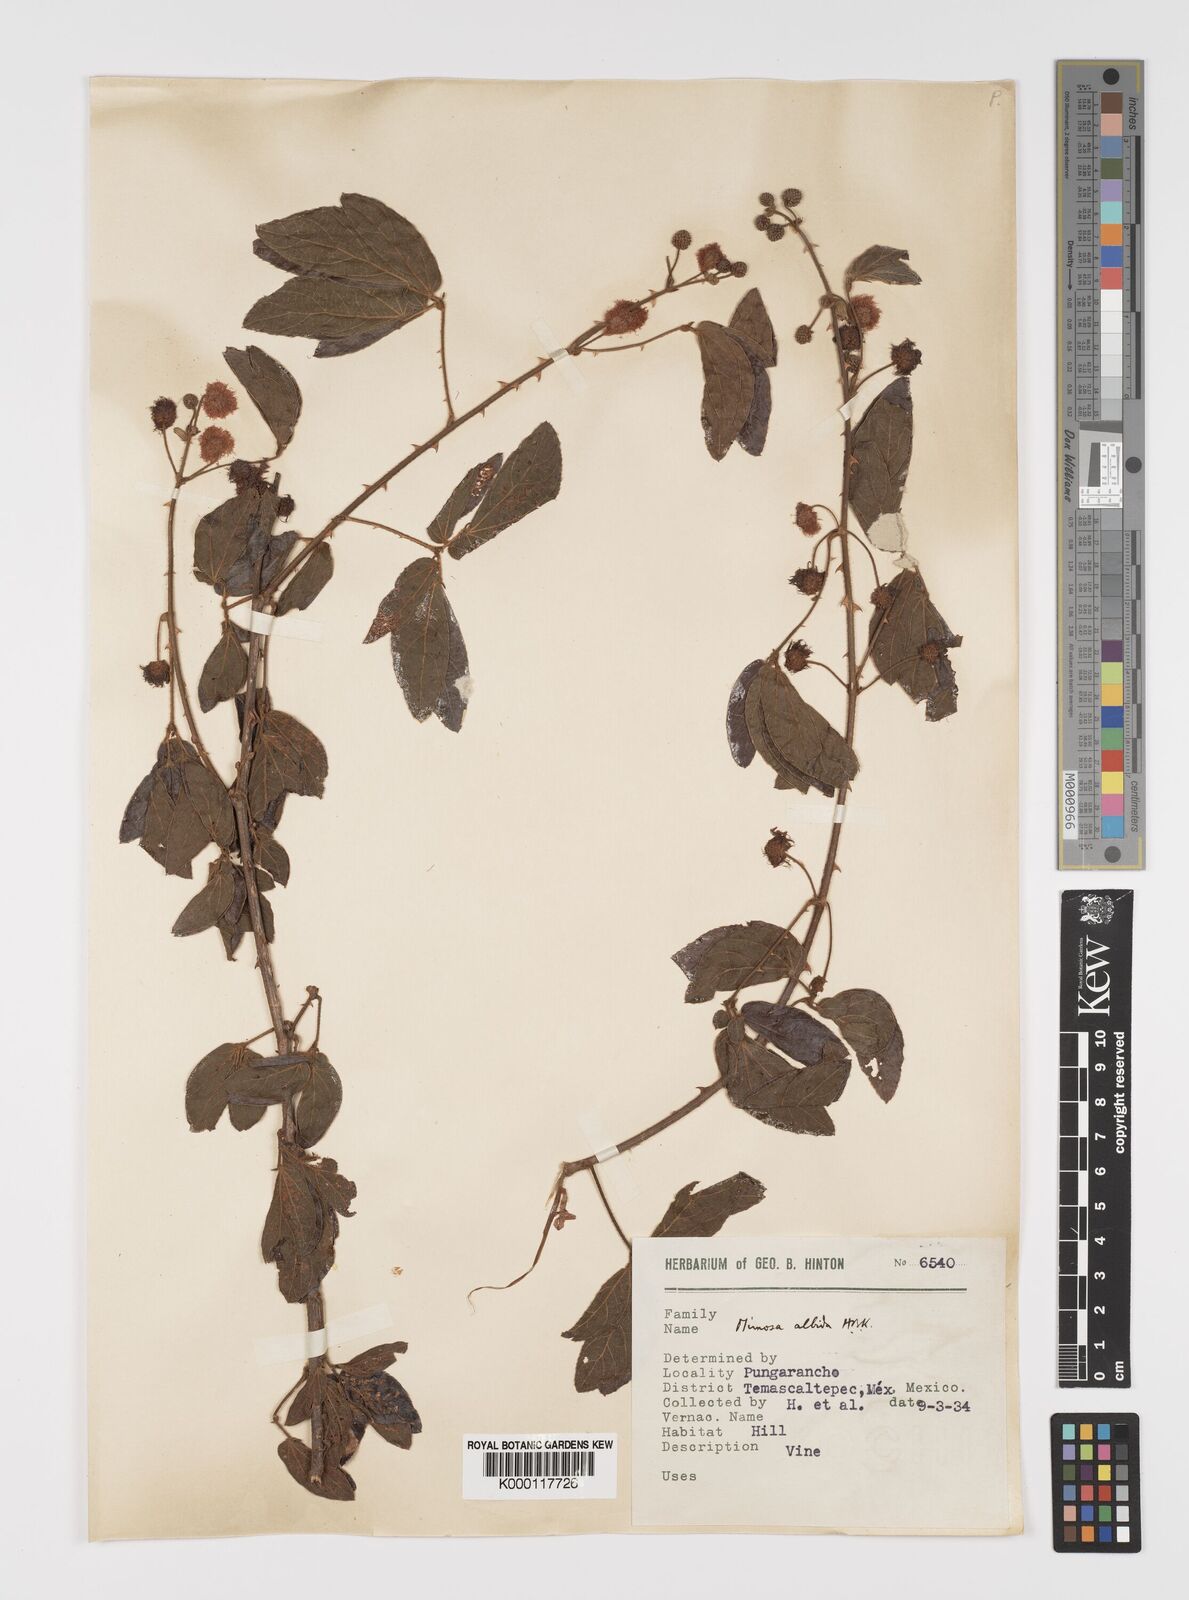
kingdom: Plantae
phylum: Tracheophyta
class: Magnoliopsida
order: Fabales
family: Fabaceae
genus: Mimosa
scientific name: Mimosa albida
